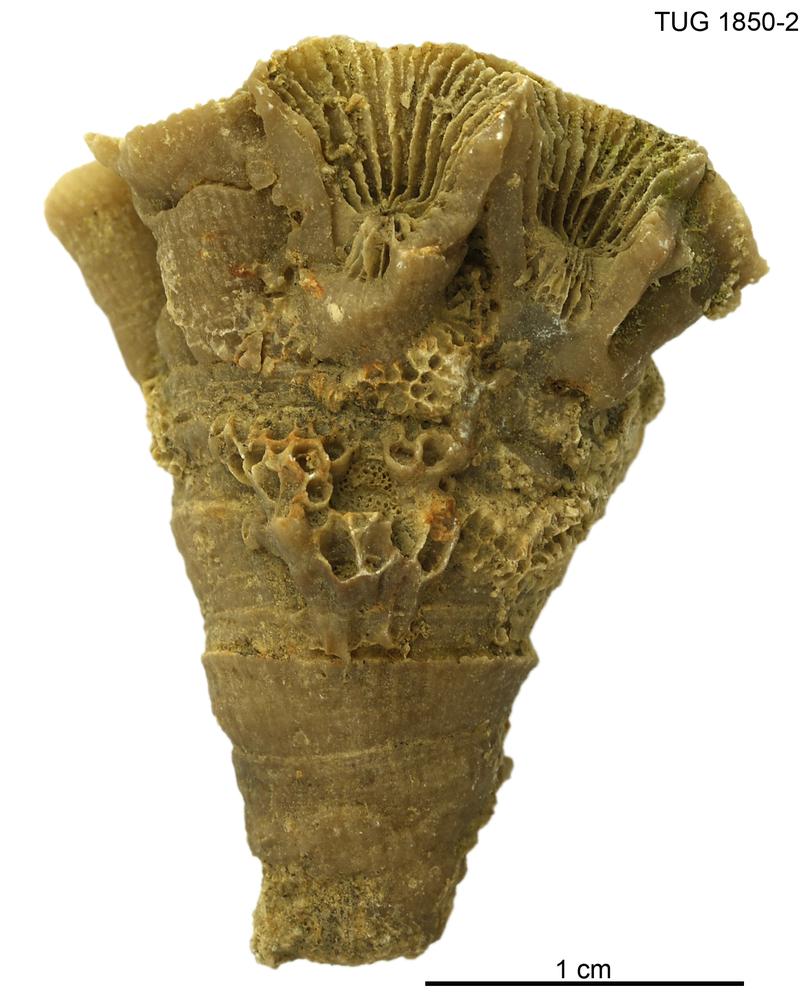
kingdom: Animalia
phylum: Cnidaria
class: Anthozoa
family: Entelophyllidae
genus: Entelophyllum
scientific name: Entelophyllum
